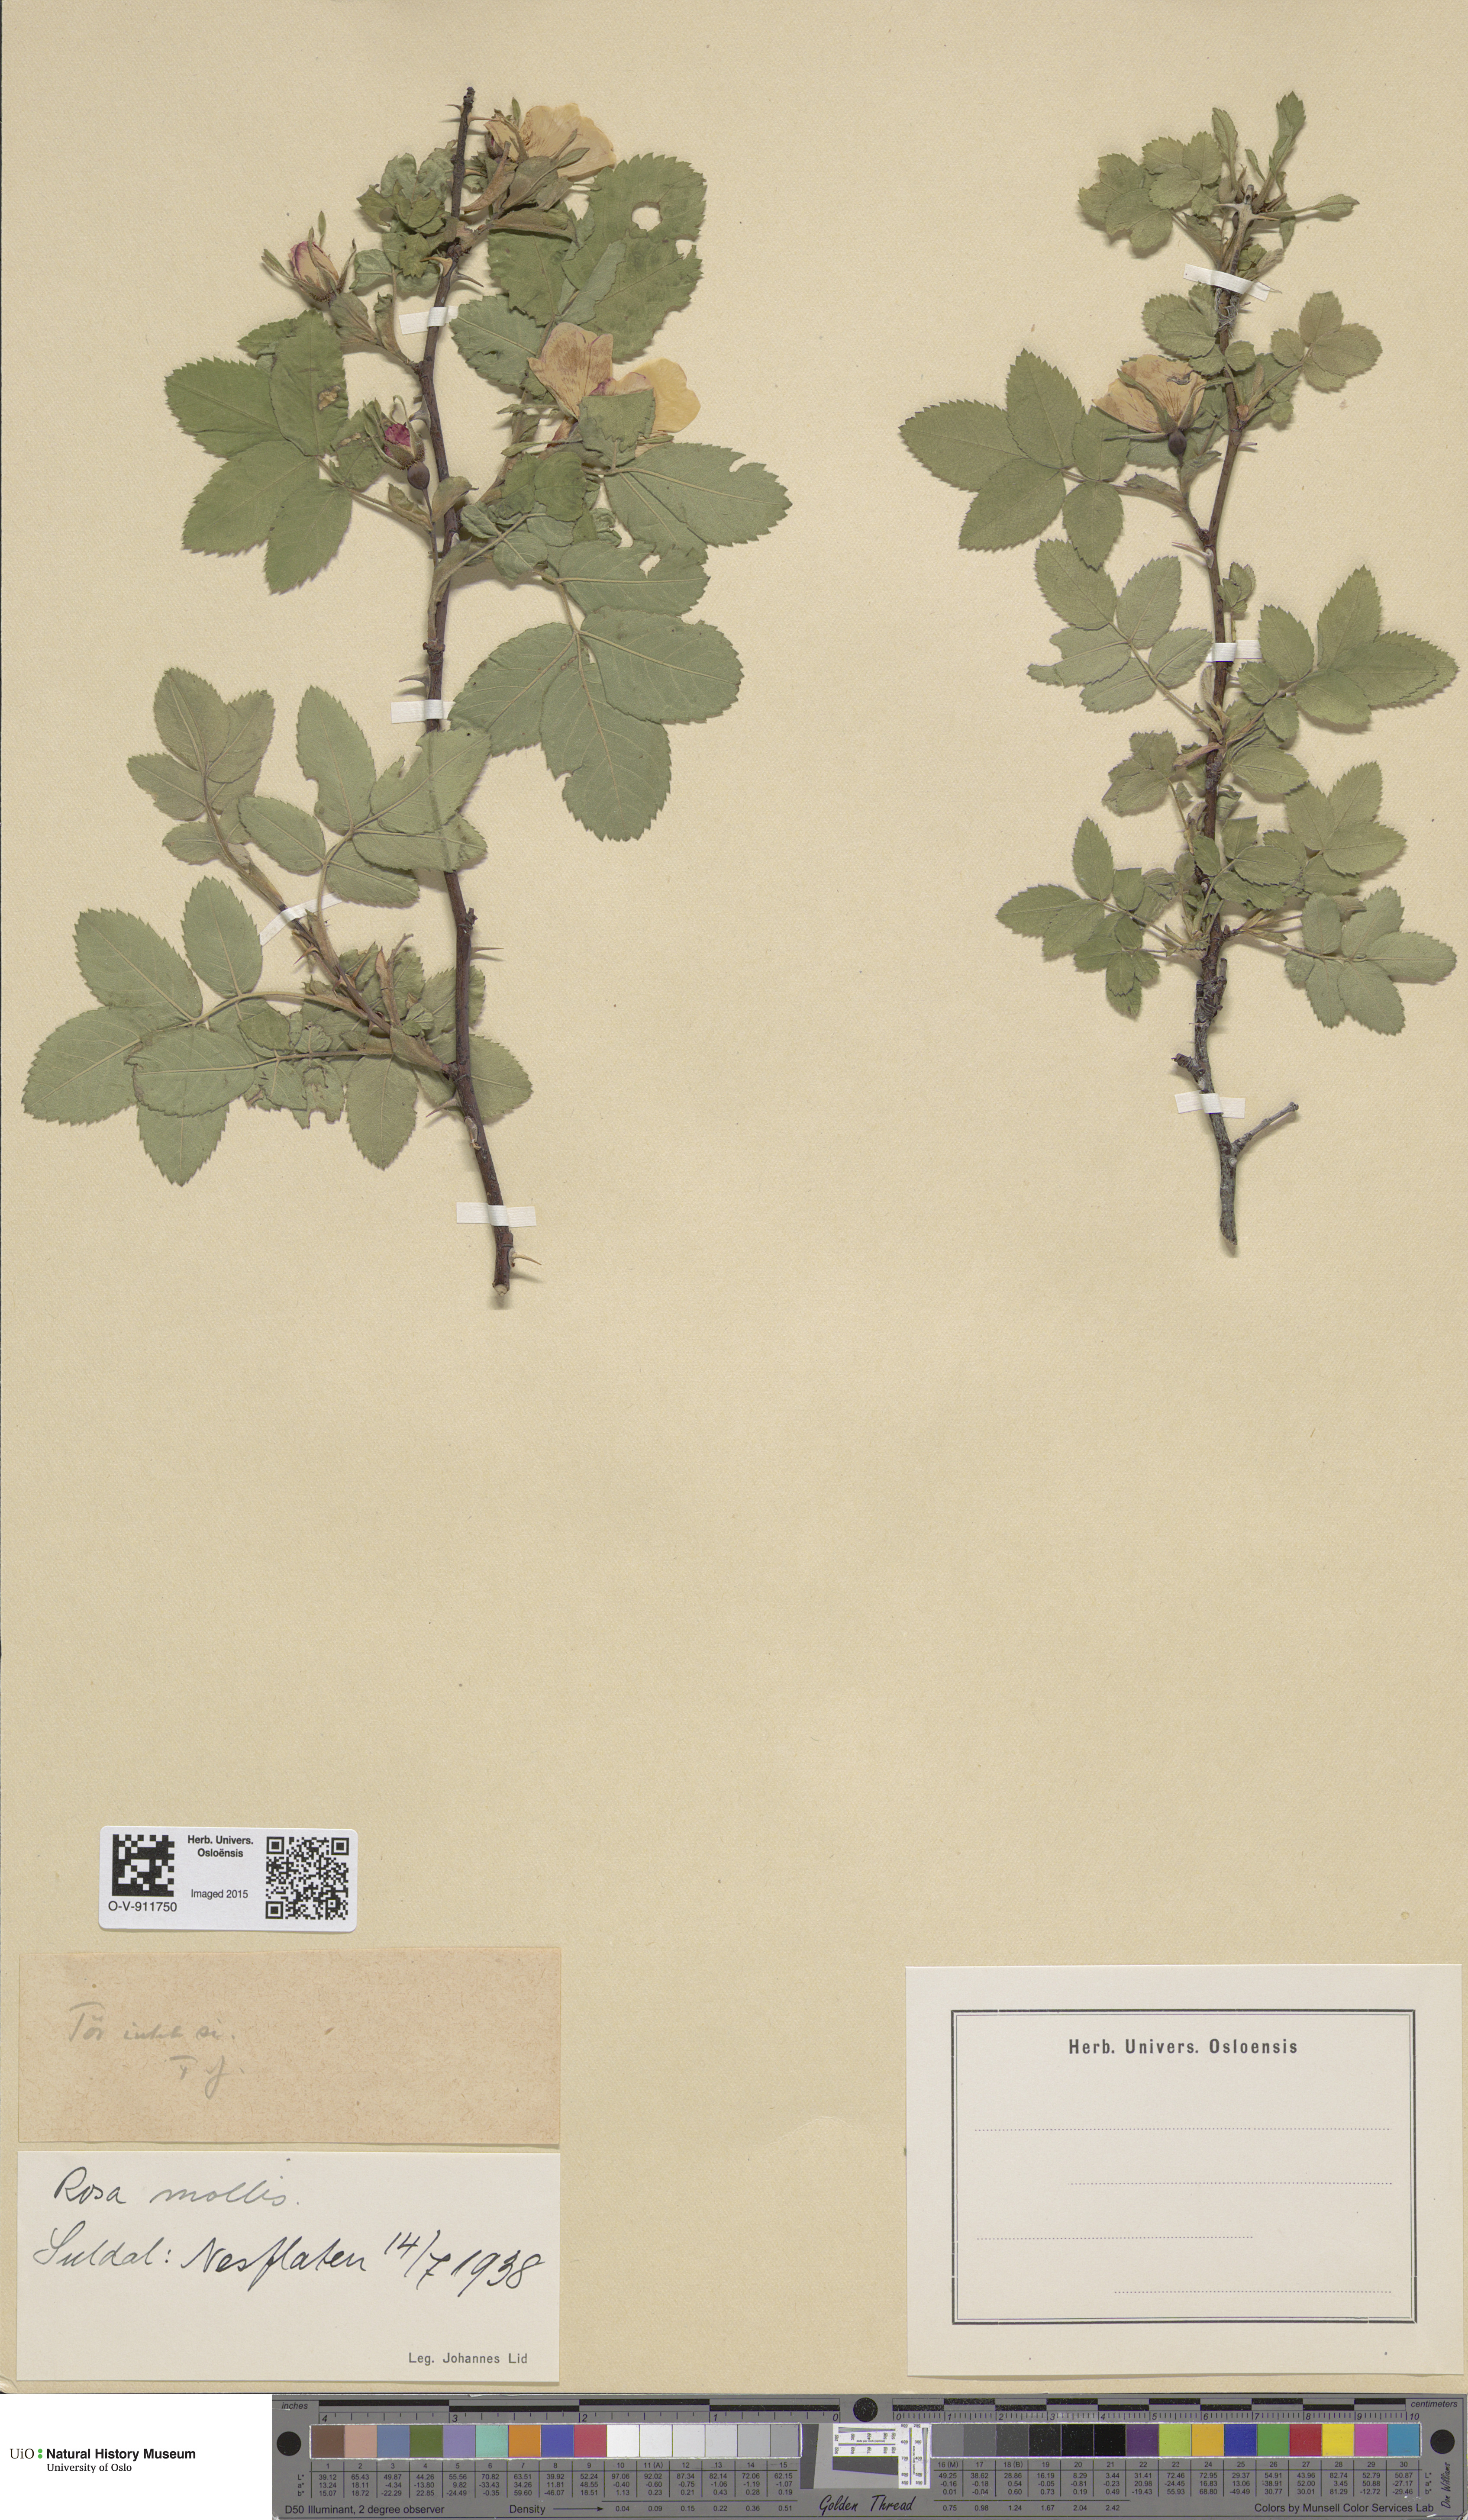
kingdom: Plantae
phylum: Tracheophyta
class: Magnoliopsida
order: Rosales
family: Rosaceae
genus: Rosa
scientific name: Rosa mollis
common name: Rose
